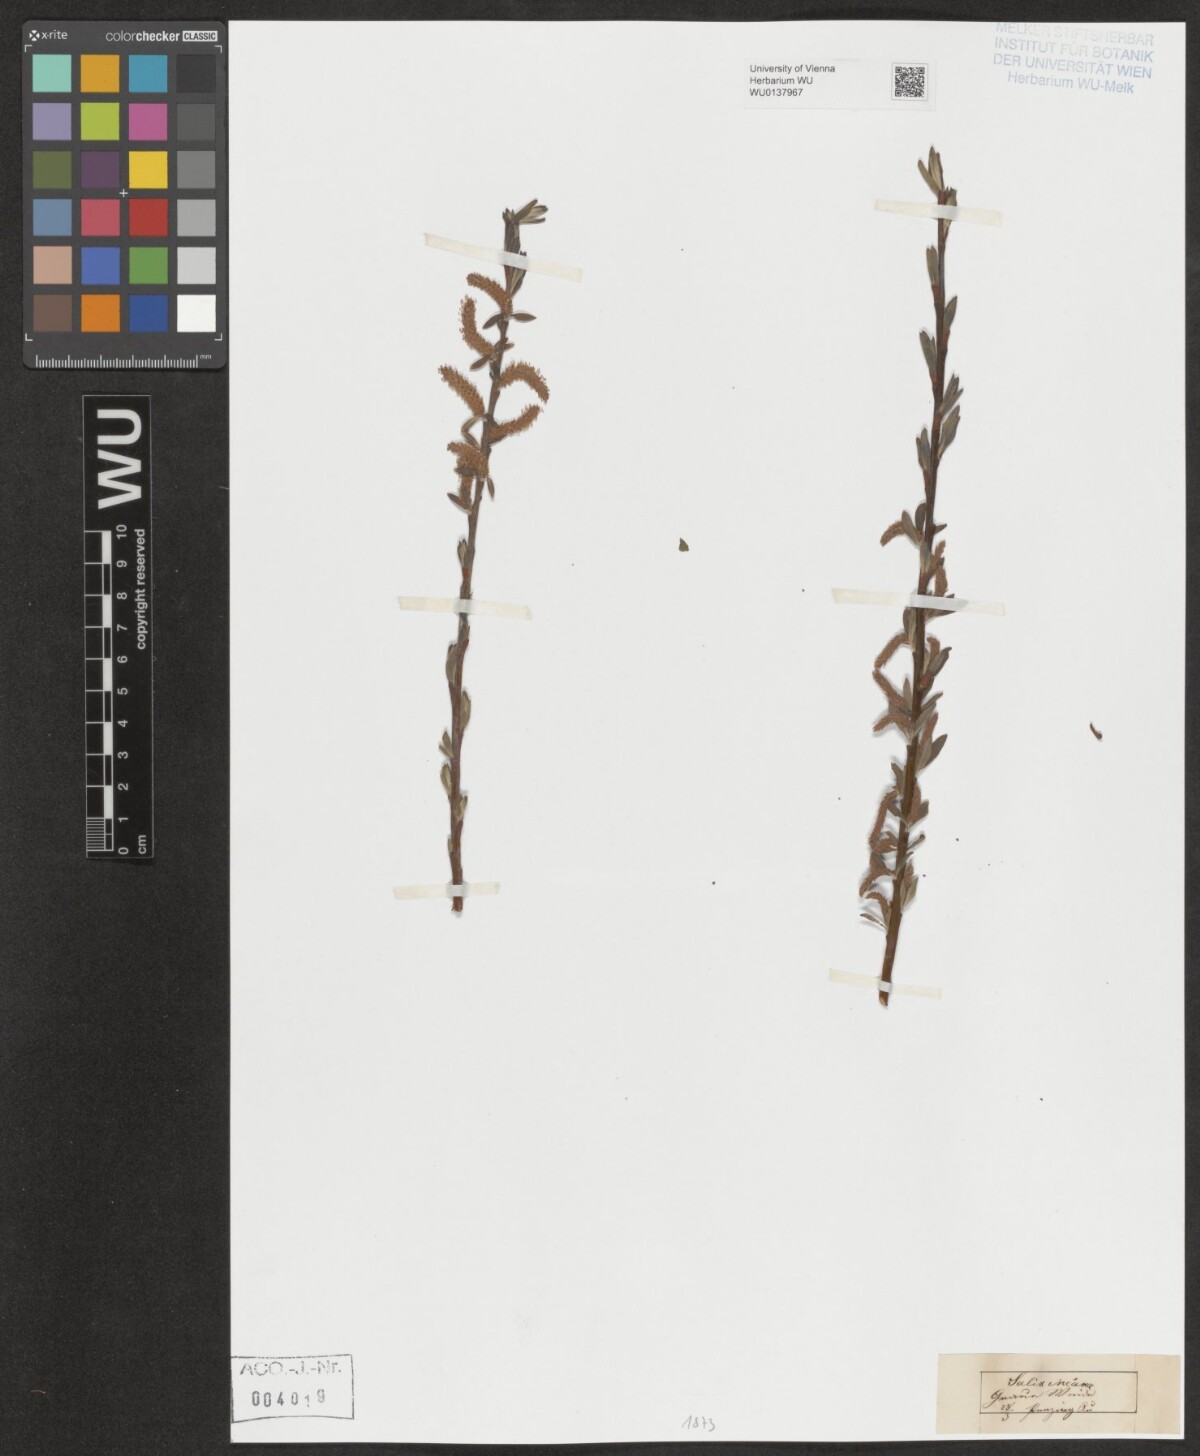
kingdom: Plantae
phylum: Tracheophyta
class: Magnoliopsida
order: Malpighiales
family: Salicaceae
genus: Salix
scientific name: Salix eleagnos
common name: Elaeagnus willow
